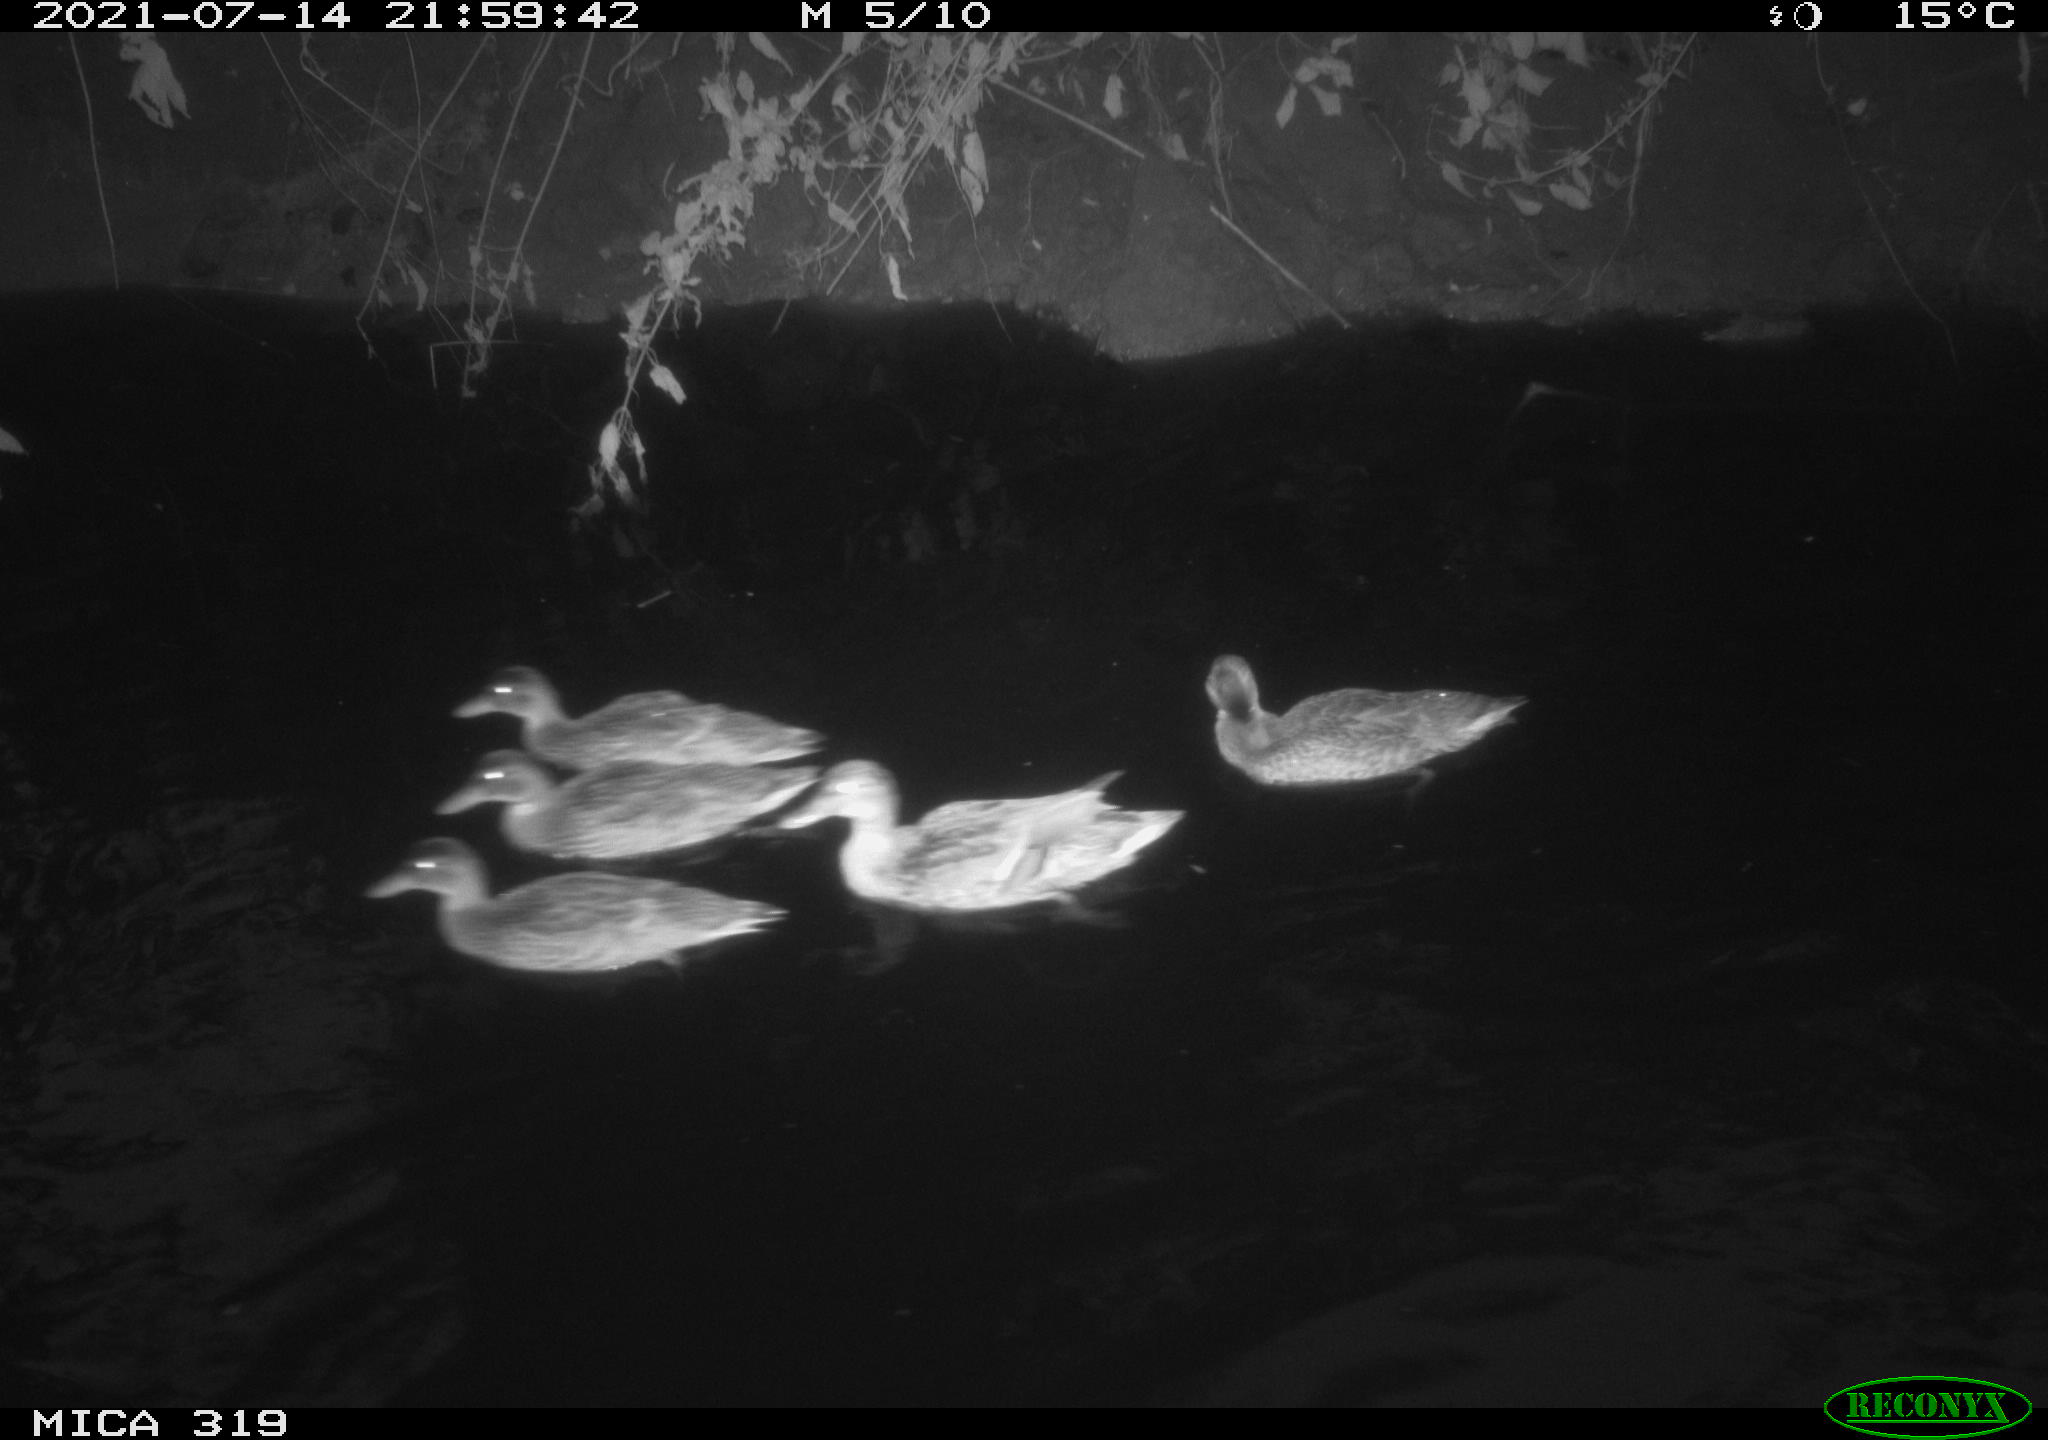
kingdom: Animalia
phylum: Chordata
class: Aves
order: Anseriformes
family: Anatidae
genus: Anas
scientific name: Anas platyrhynchos
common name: Mallard
